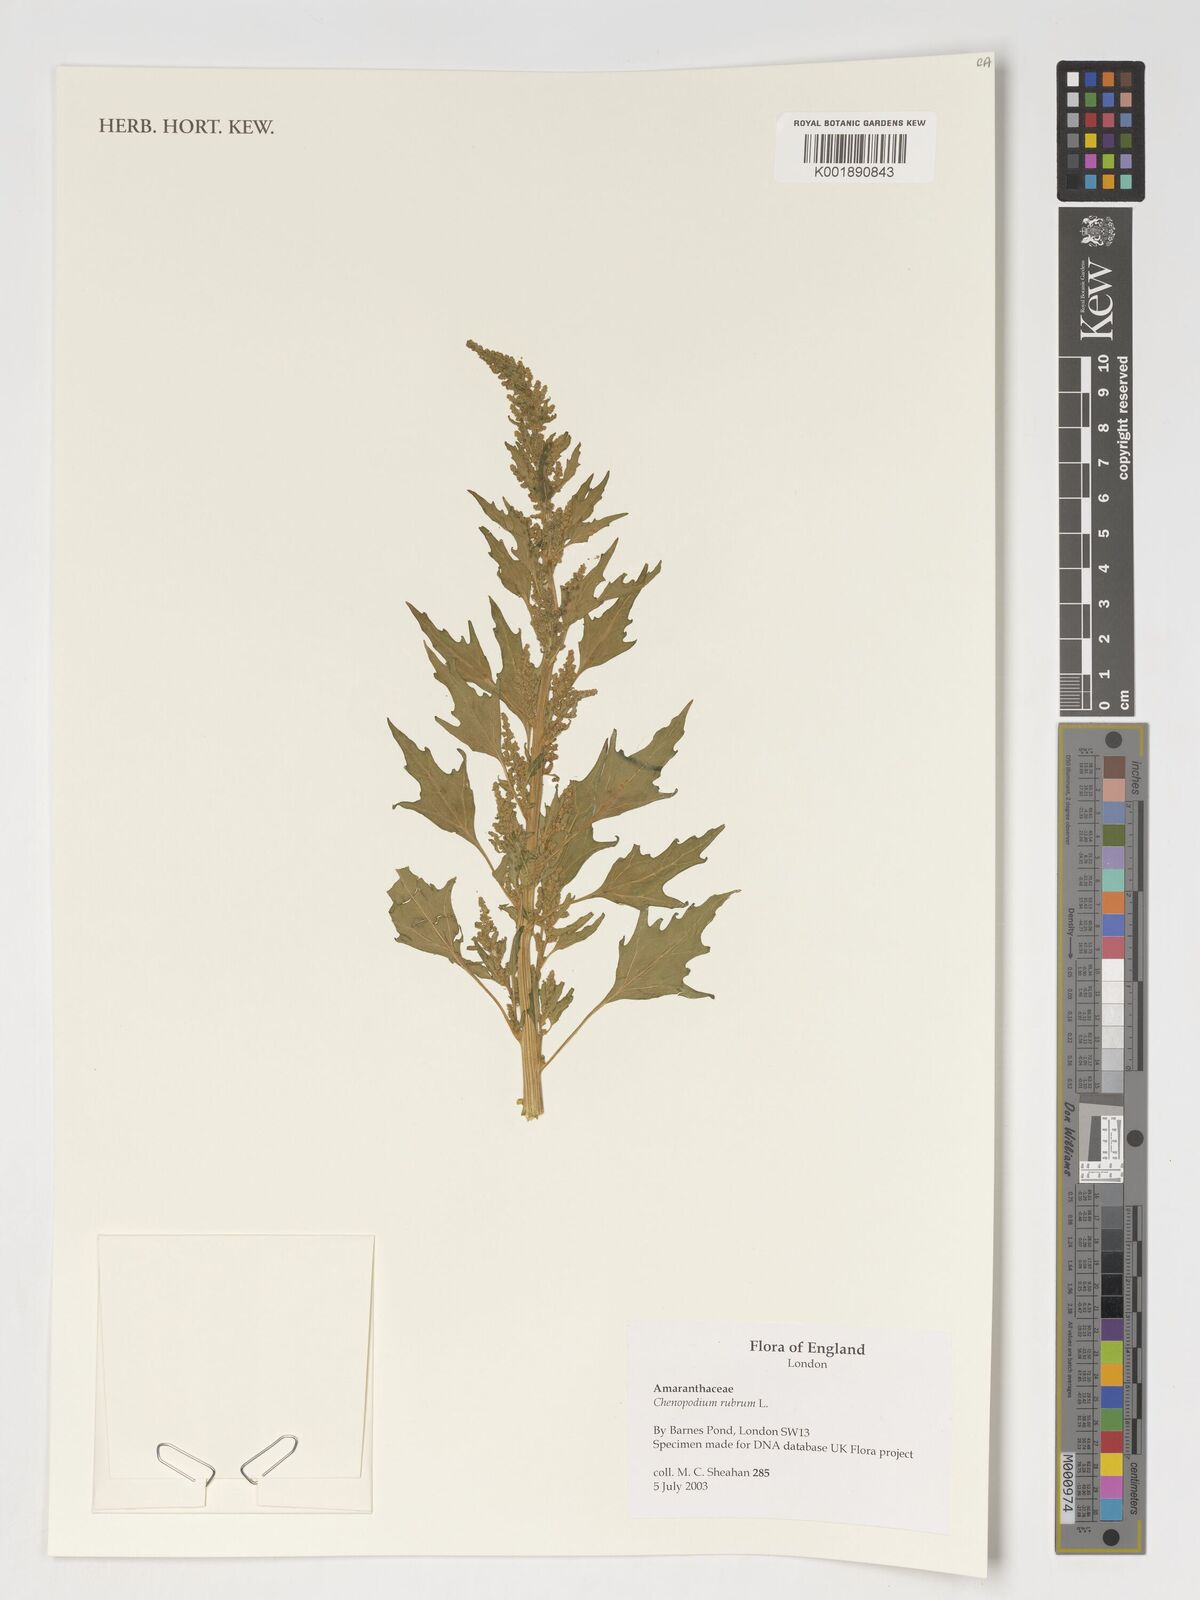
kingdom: Plantae
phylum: Tracheophyta
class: Magnoliopsida
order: Caryophyllales
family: Amaranthaceae
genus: Oxybasis
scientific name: Oxybasis rubra
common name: Red goosefoot
